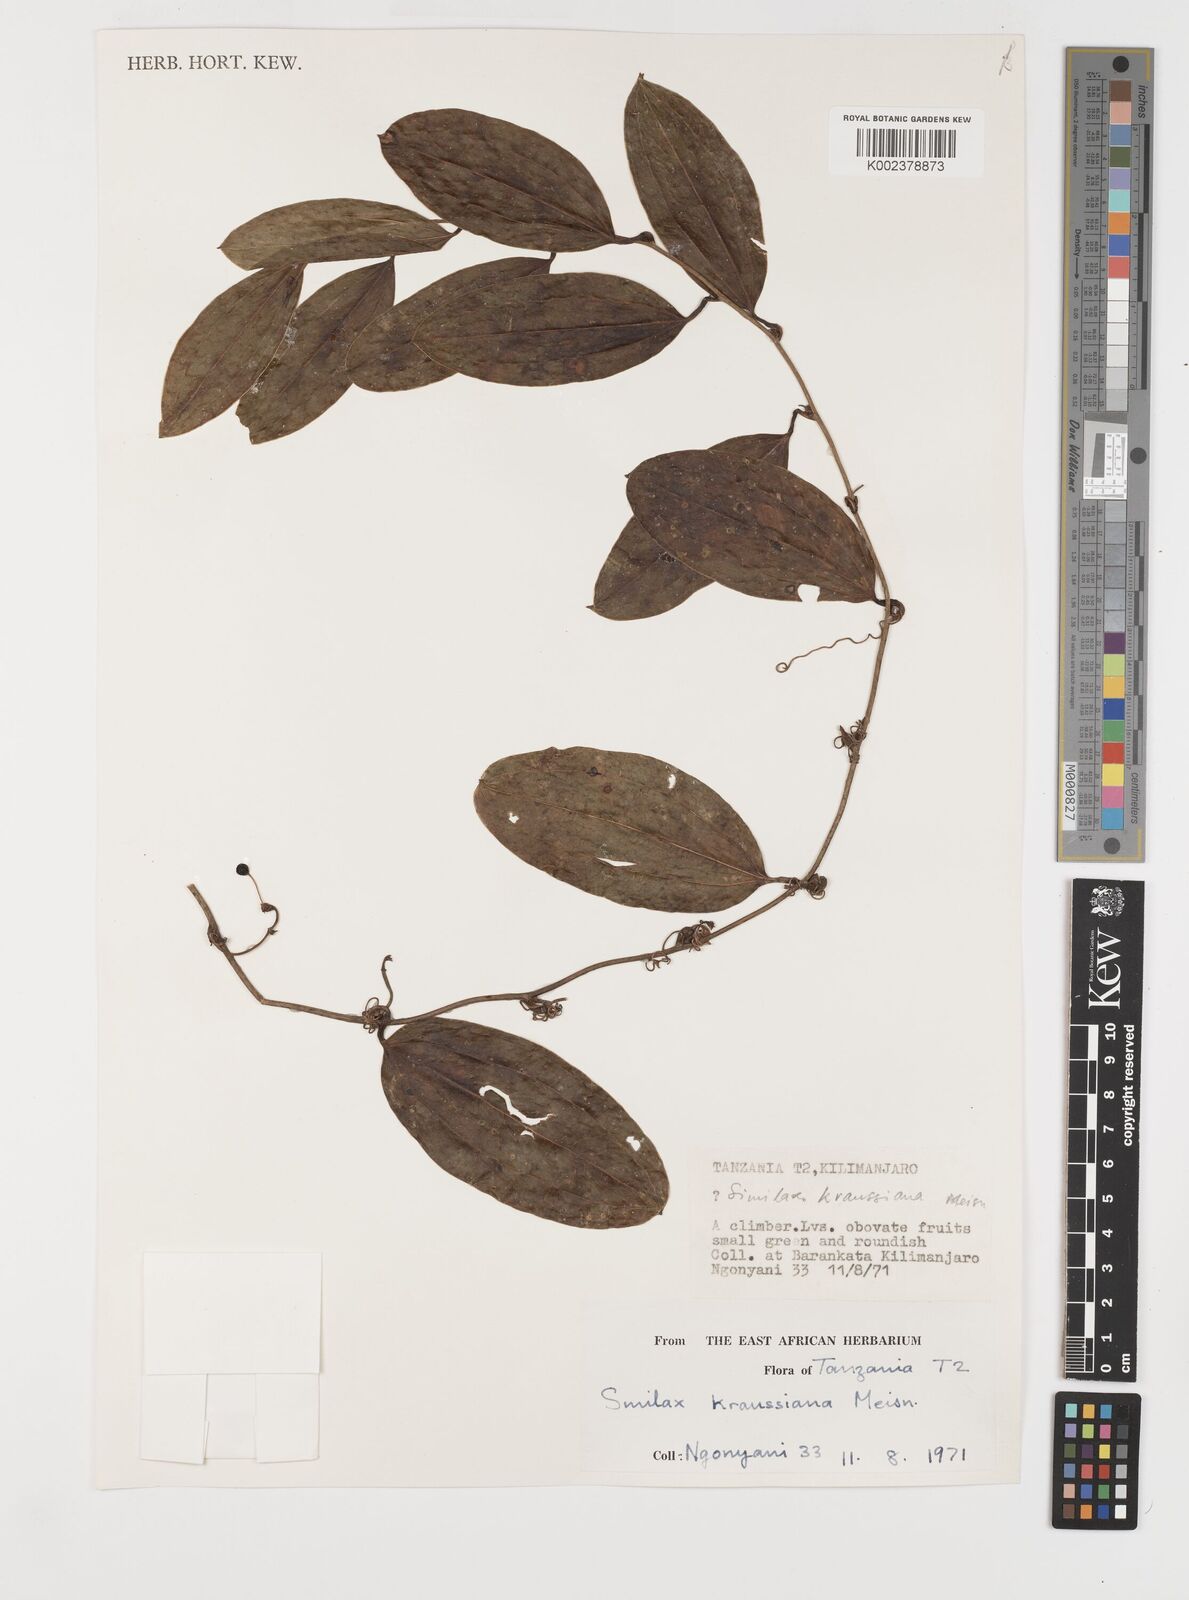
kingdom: Plantae
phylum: Tracheophyta
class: Liliopsida
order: Liliales
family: Smilacaceae
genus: Smilax
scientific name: Smilax anceps
